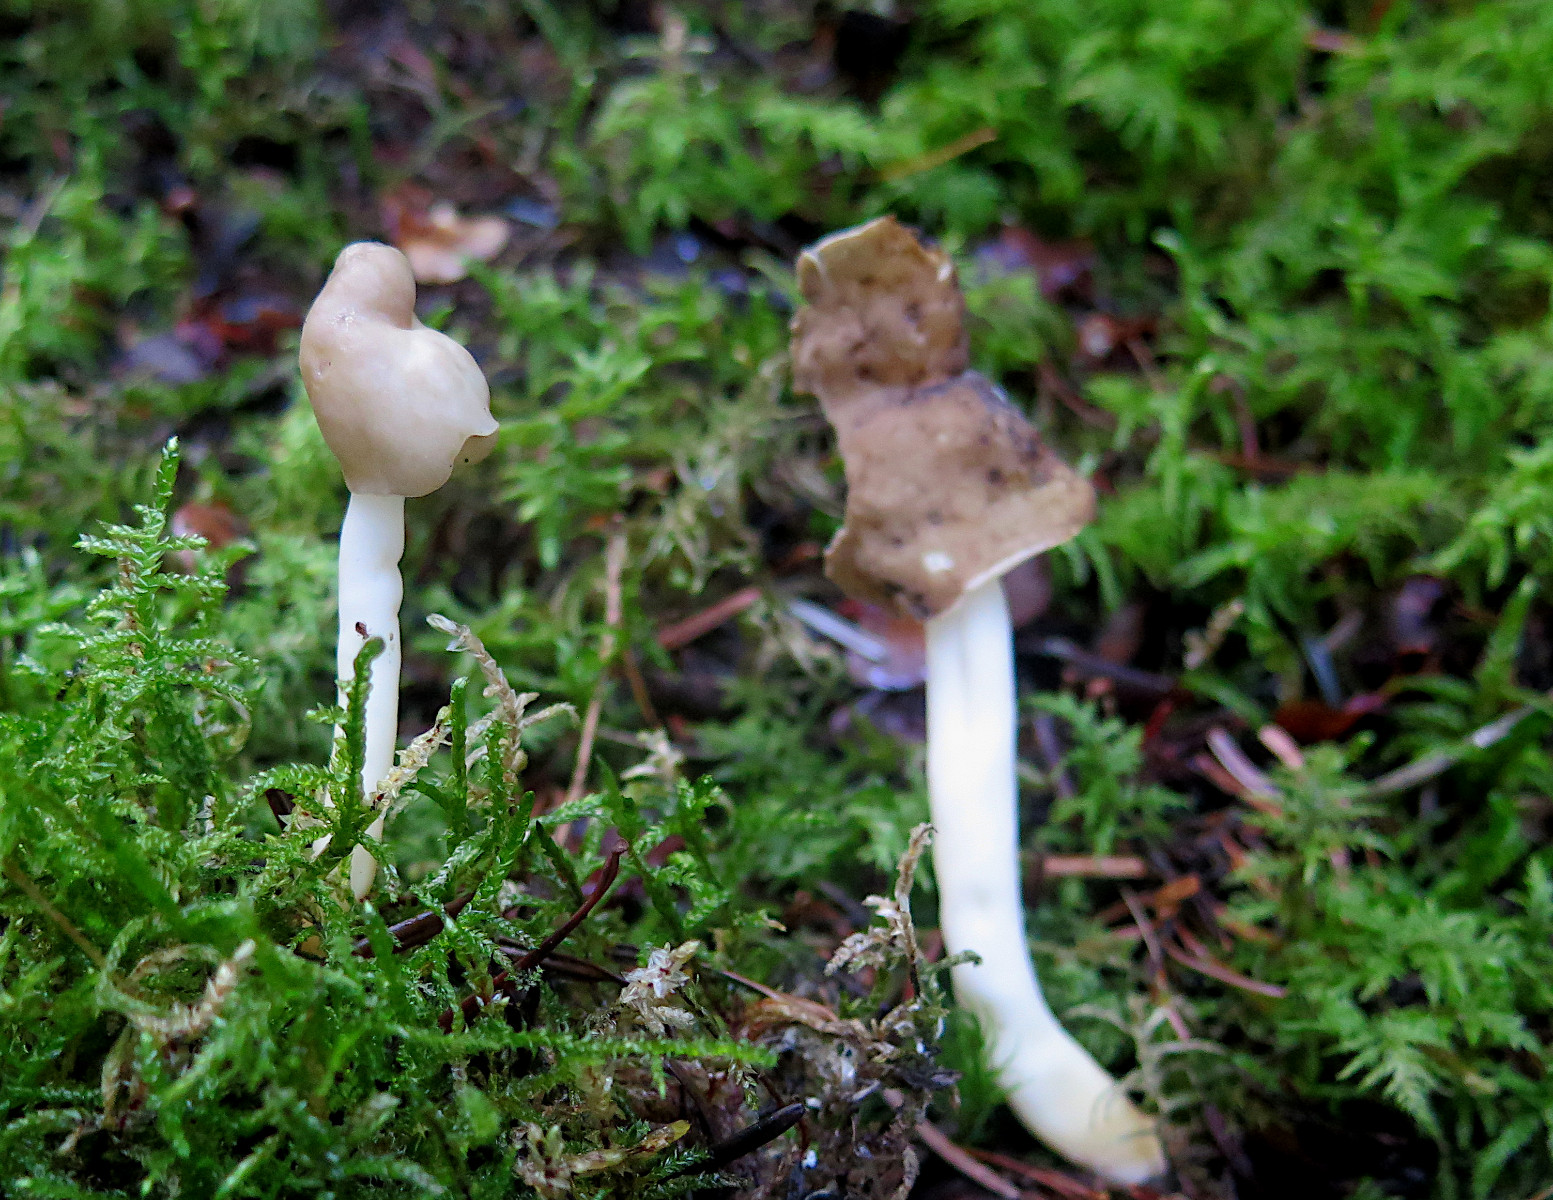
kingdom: Fungi
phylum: Ascomycota
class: Pezizomycetes
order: Pezizales
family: Helvellaceae
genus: Helvella
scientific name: Helvella elastica
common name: elastik-foldhat
